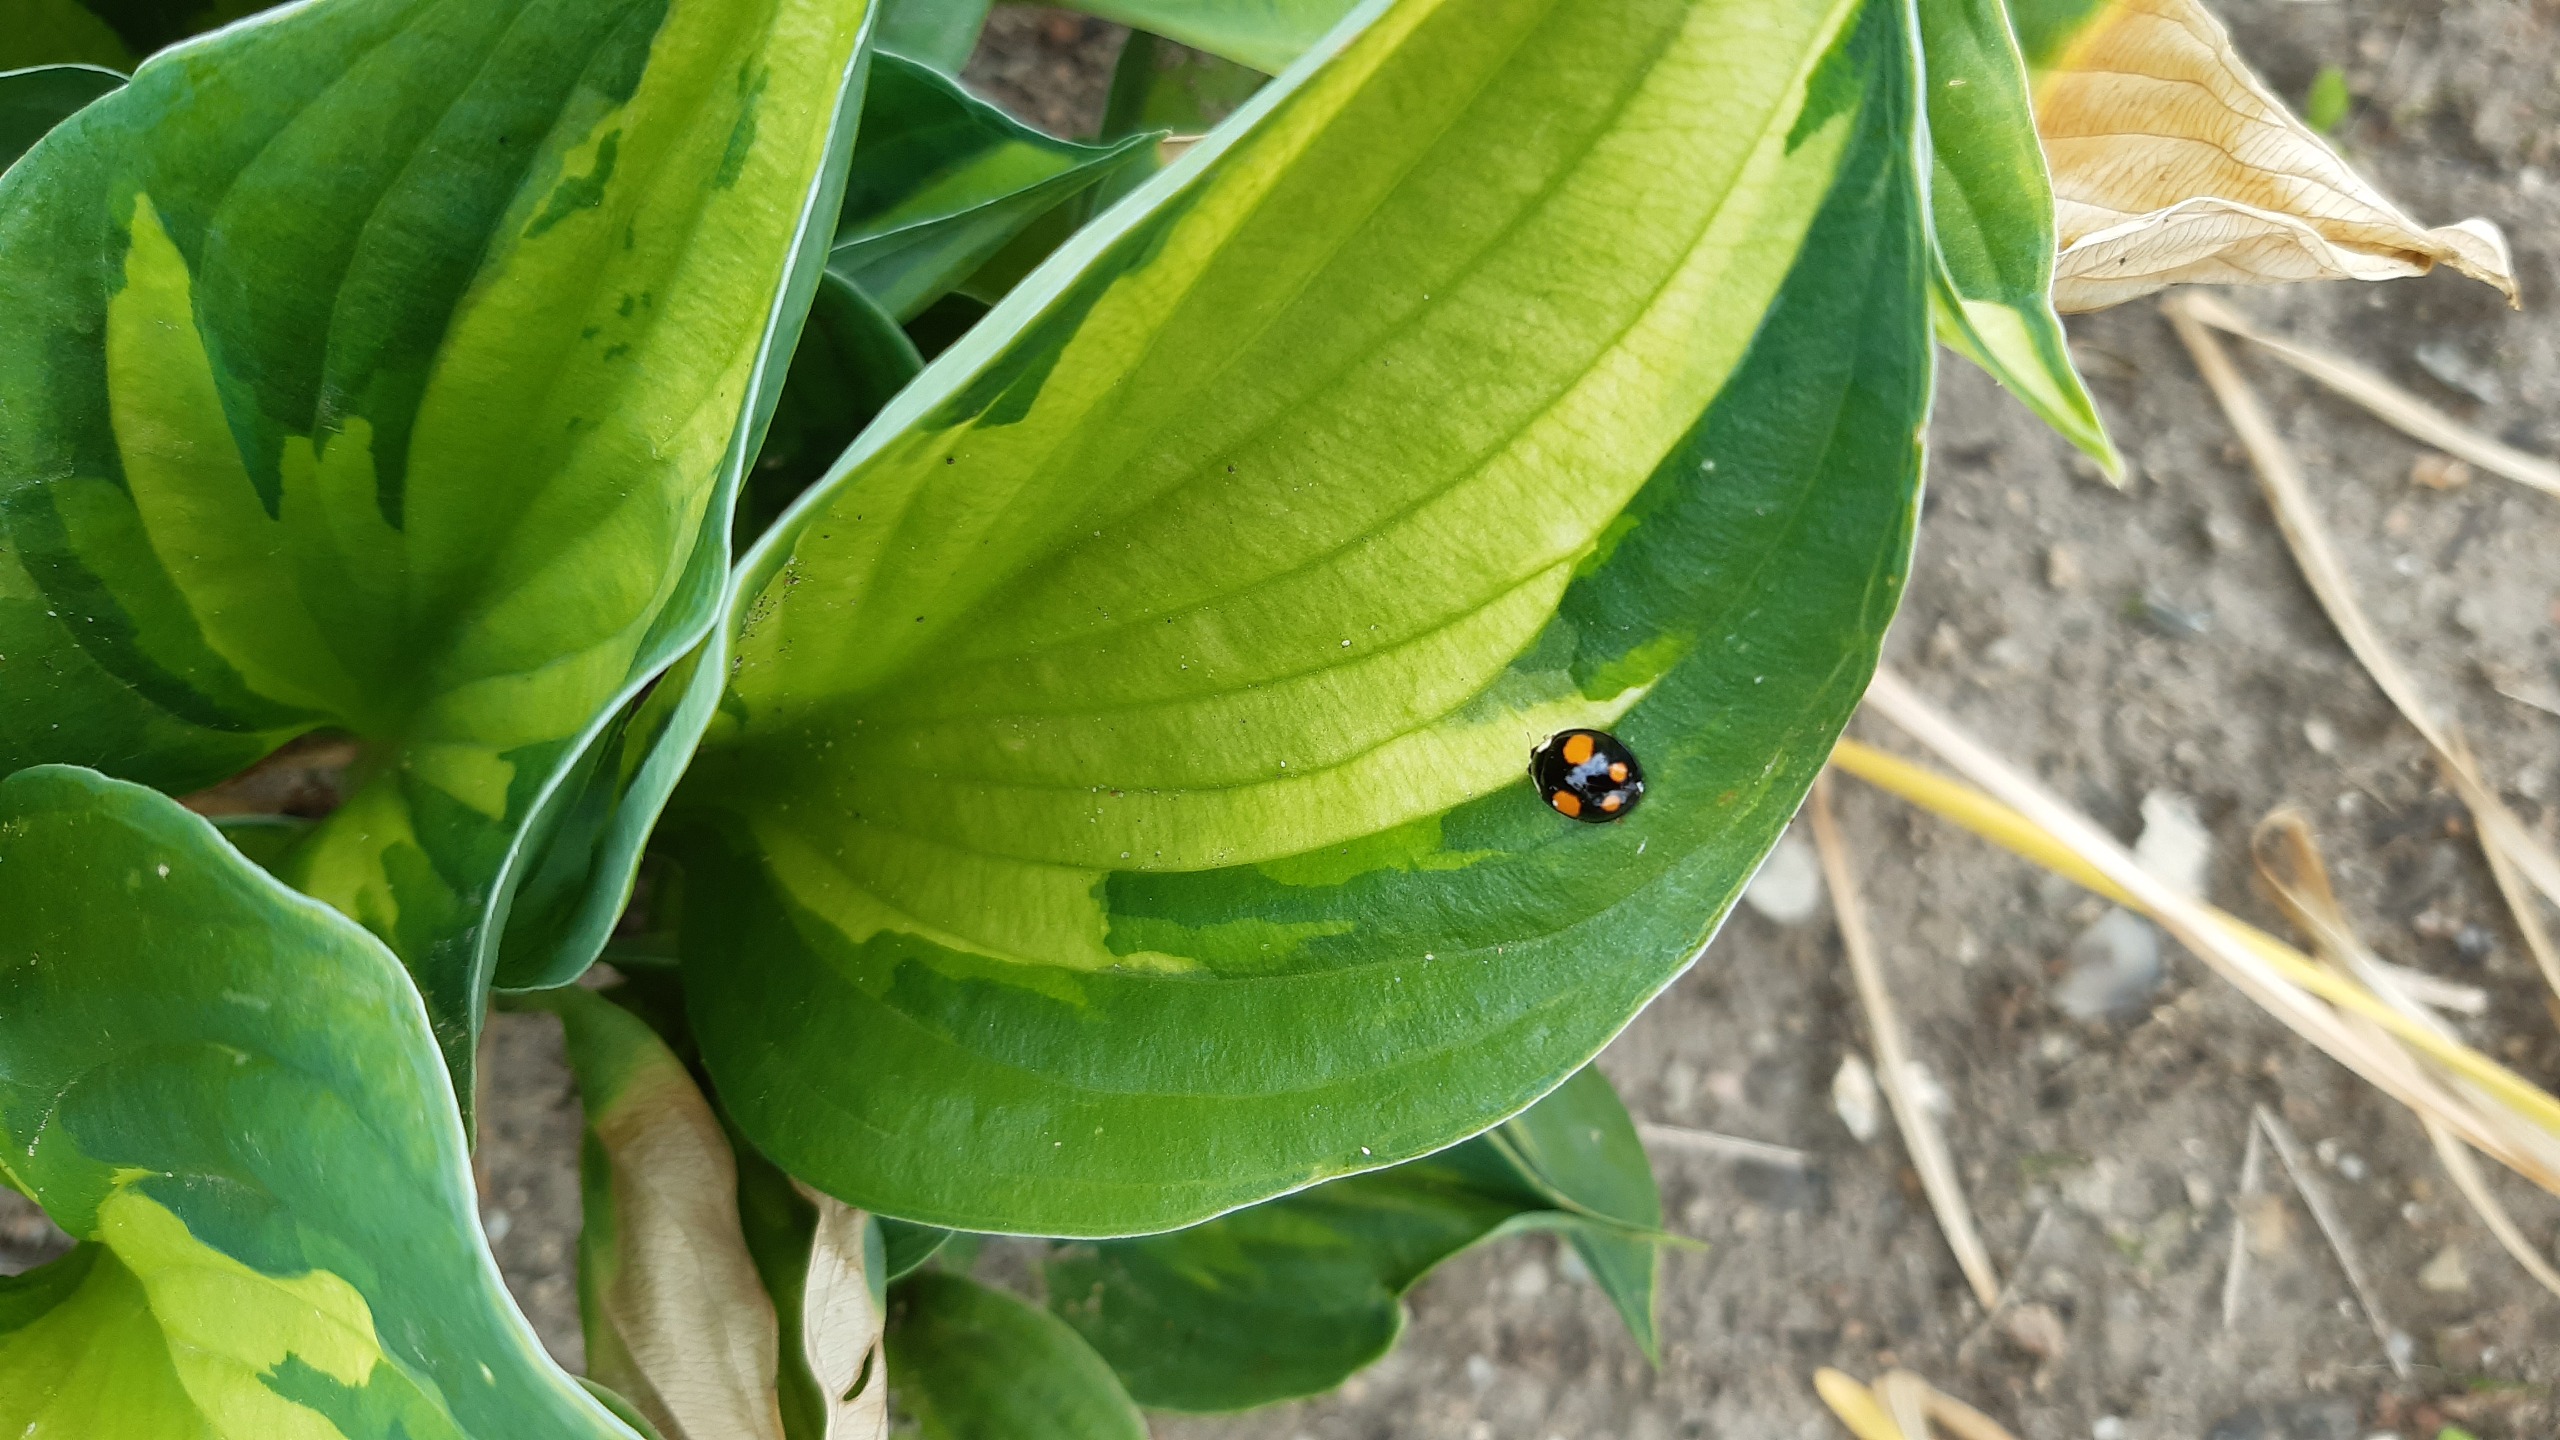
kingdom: Animalia
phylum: Arthropoda
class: Insecta
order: Coleoptera
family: Coccinellidae
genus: Harmonia
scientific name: Harmonia axyridis
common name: Harlekinmariehøne
